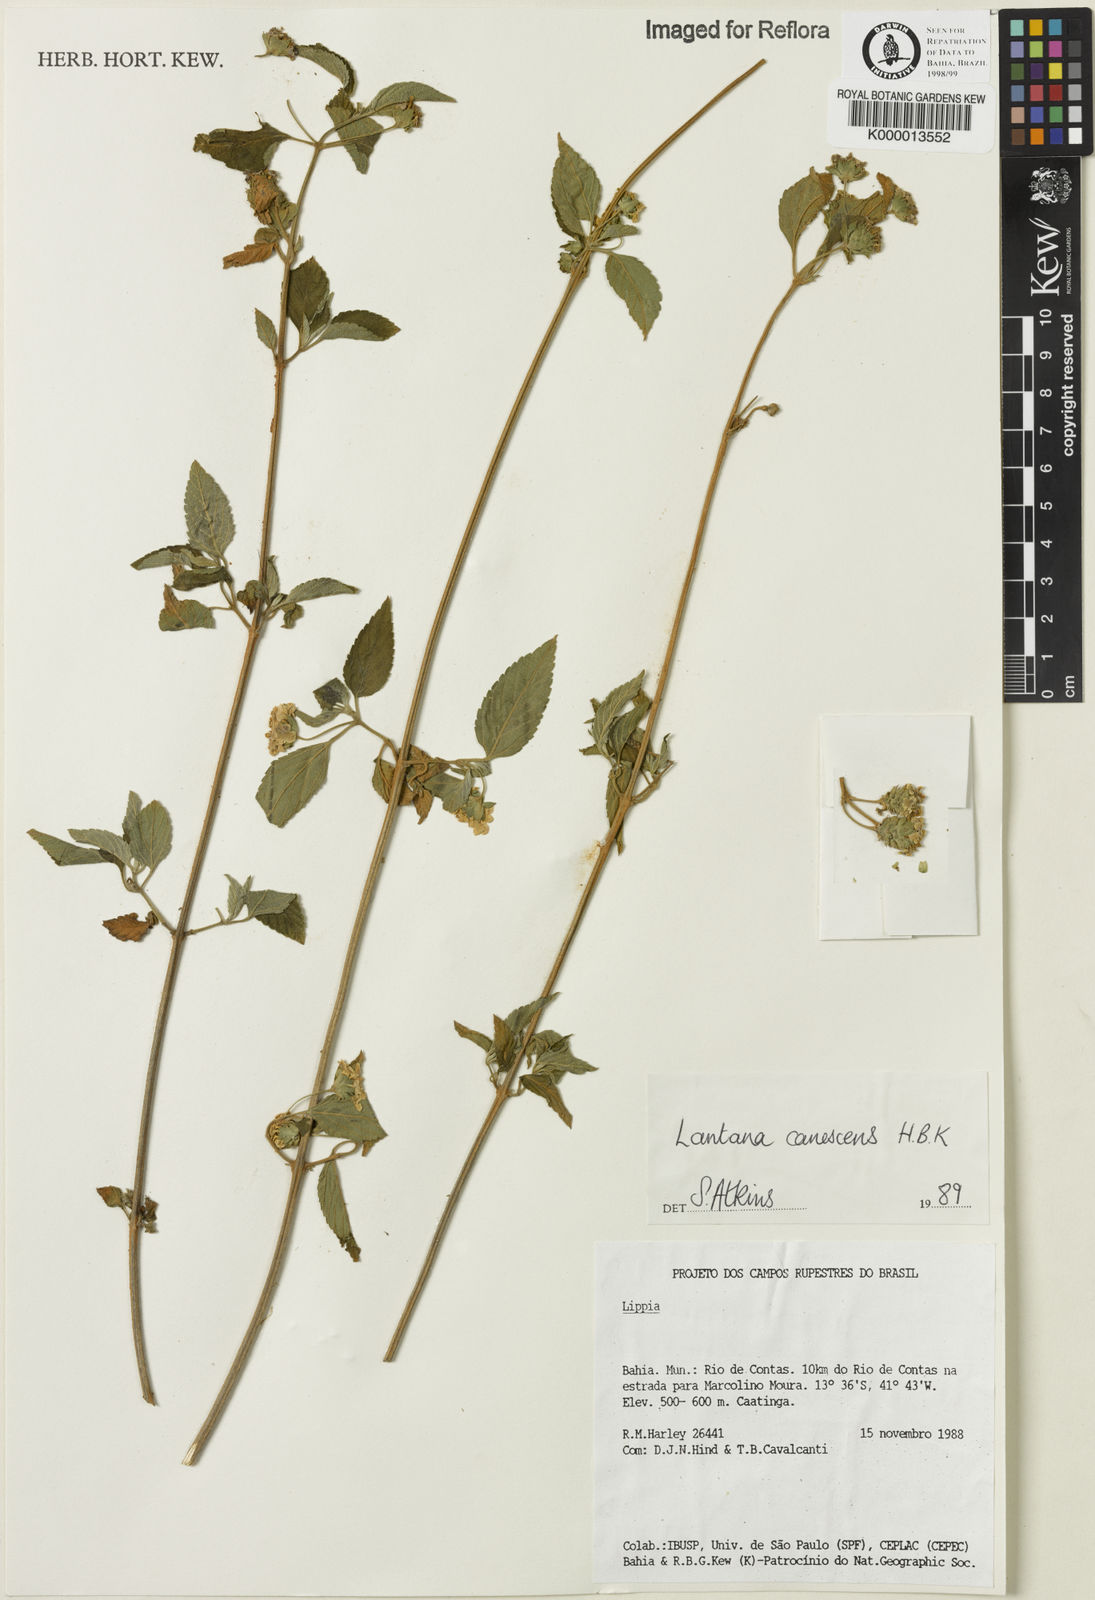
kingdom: Plantae
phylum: Tracheophyta
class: Magnoliopsida
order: Lamiales
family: Verbenaceae
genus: Lantana
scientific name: Lantana canescens
